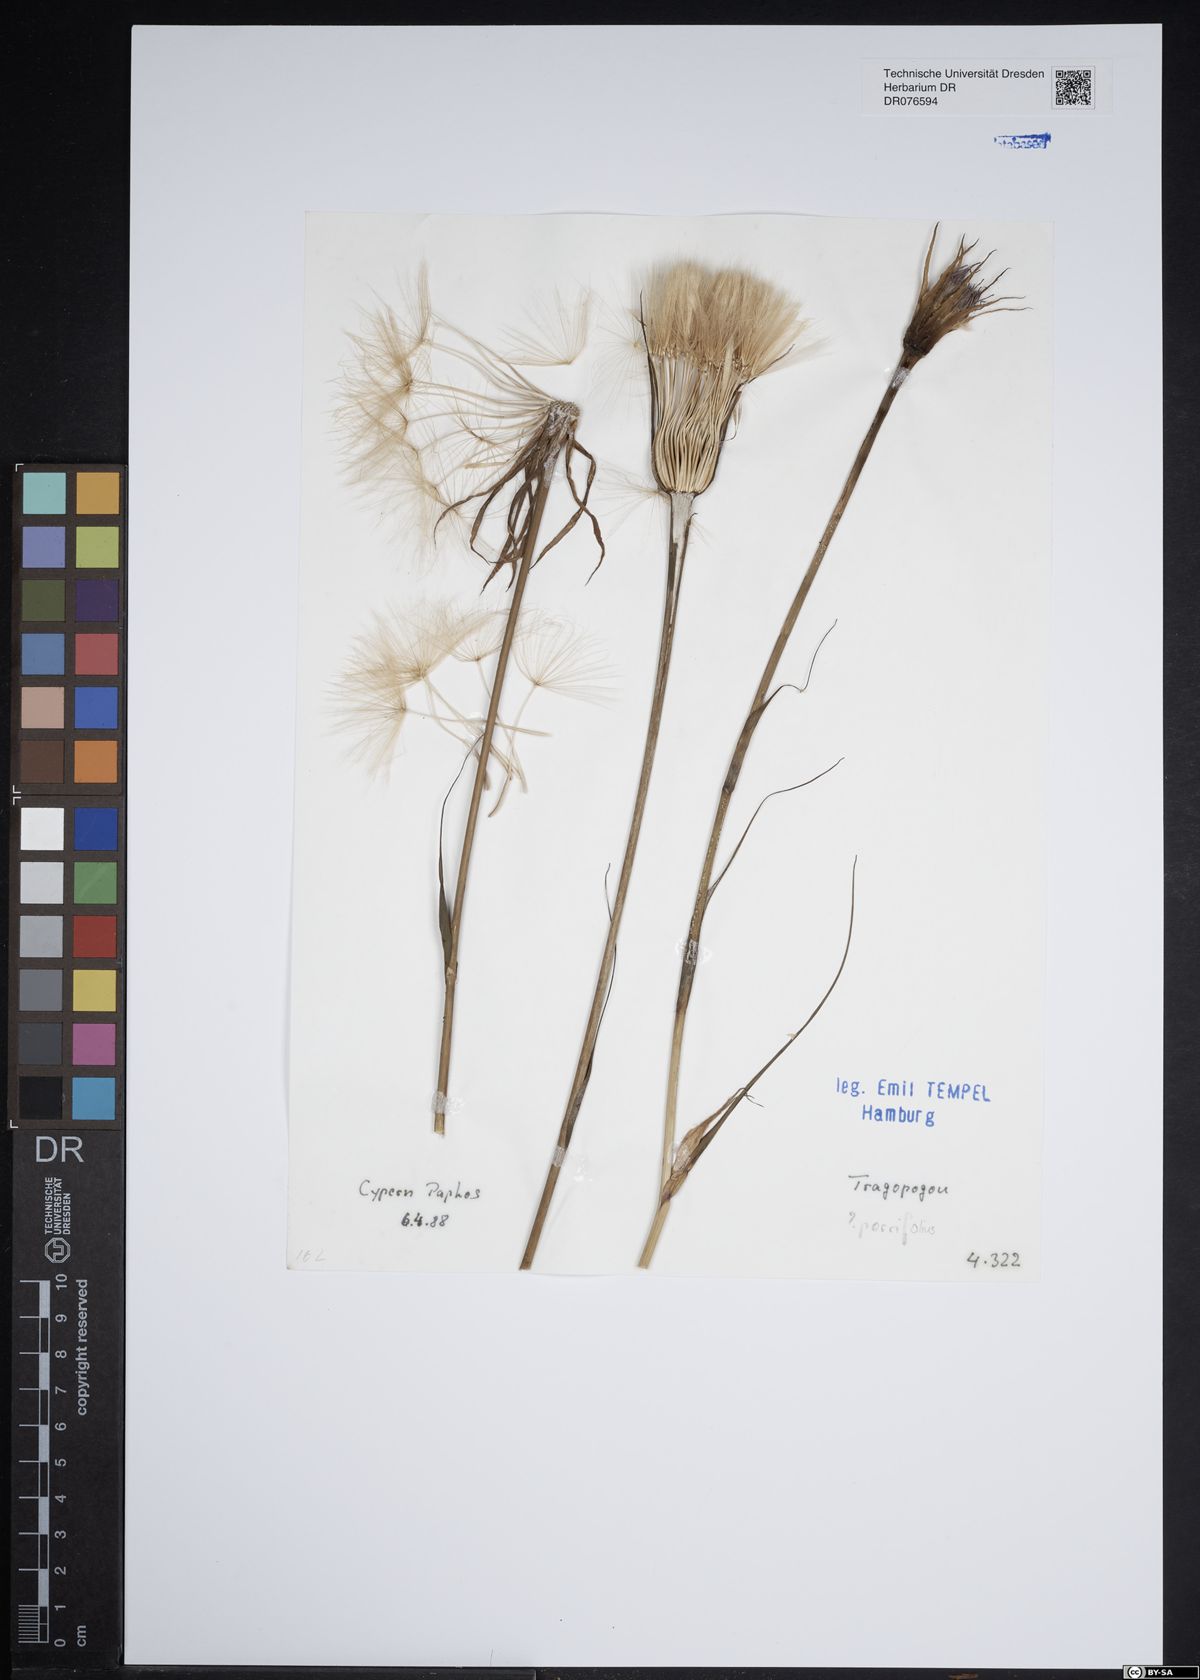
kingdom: Plantae
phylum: Tracheophyta
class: Magnoliopsida
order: Asterales
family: Asteraceae
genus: Tragopogon
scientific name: Tragopogon porrifolius
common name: Salsify
